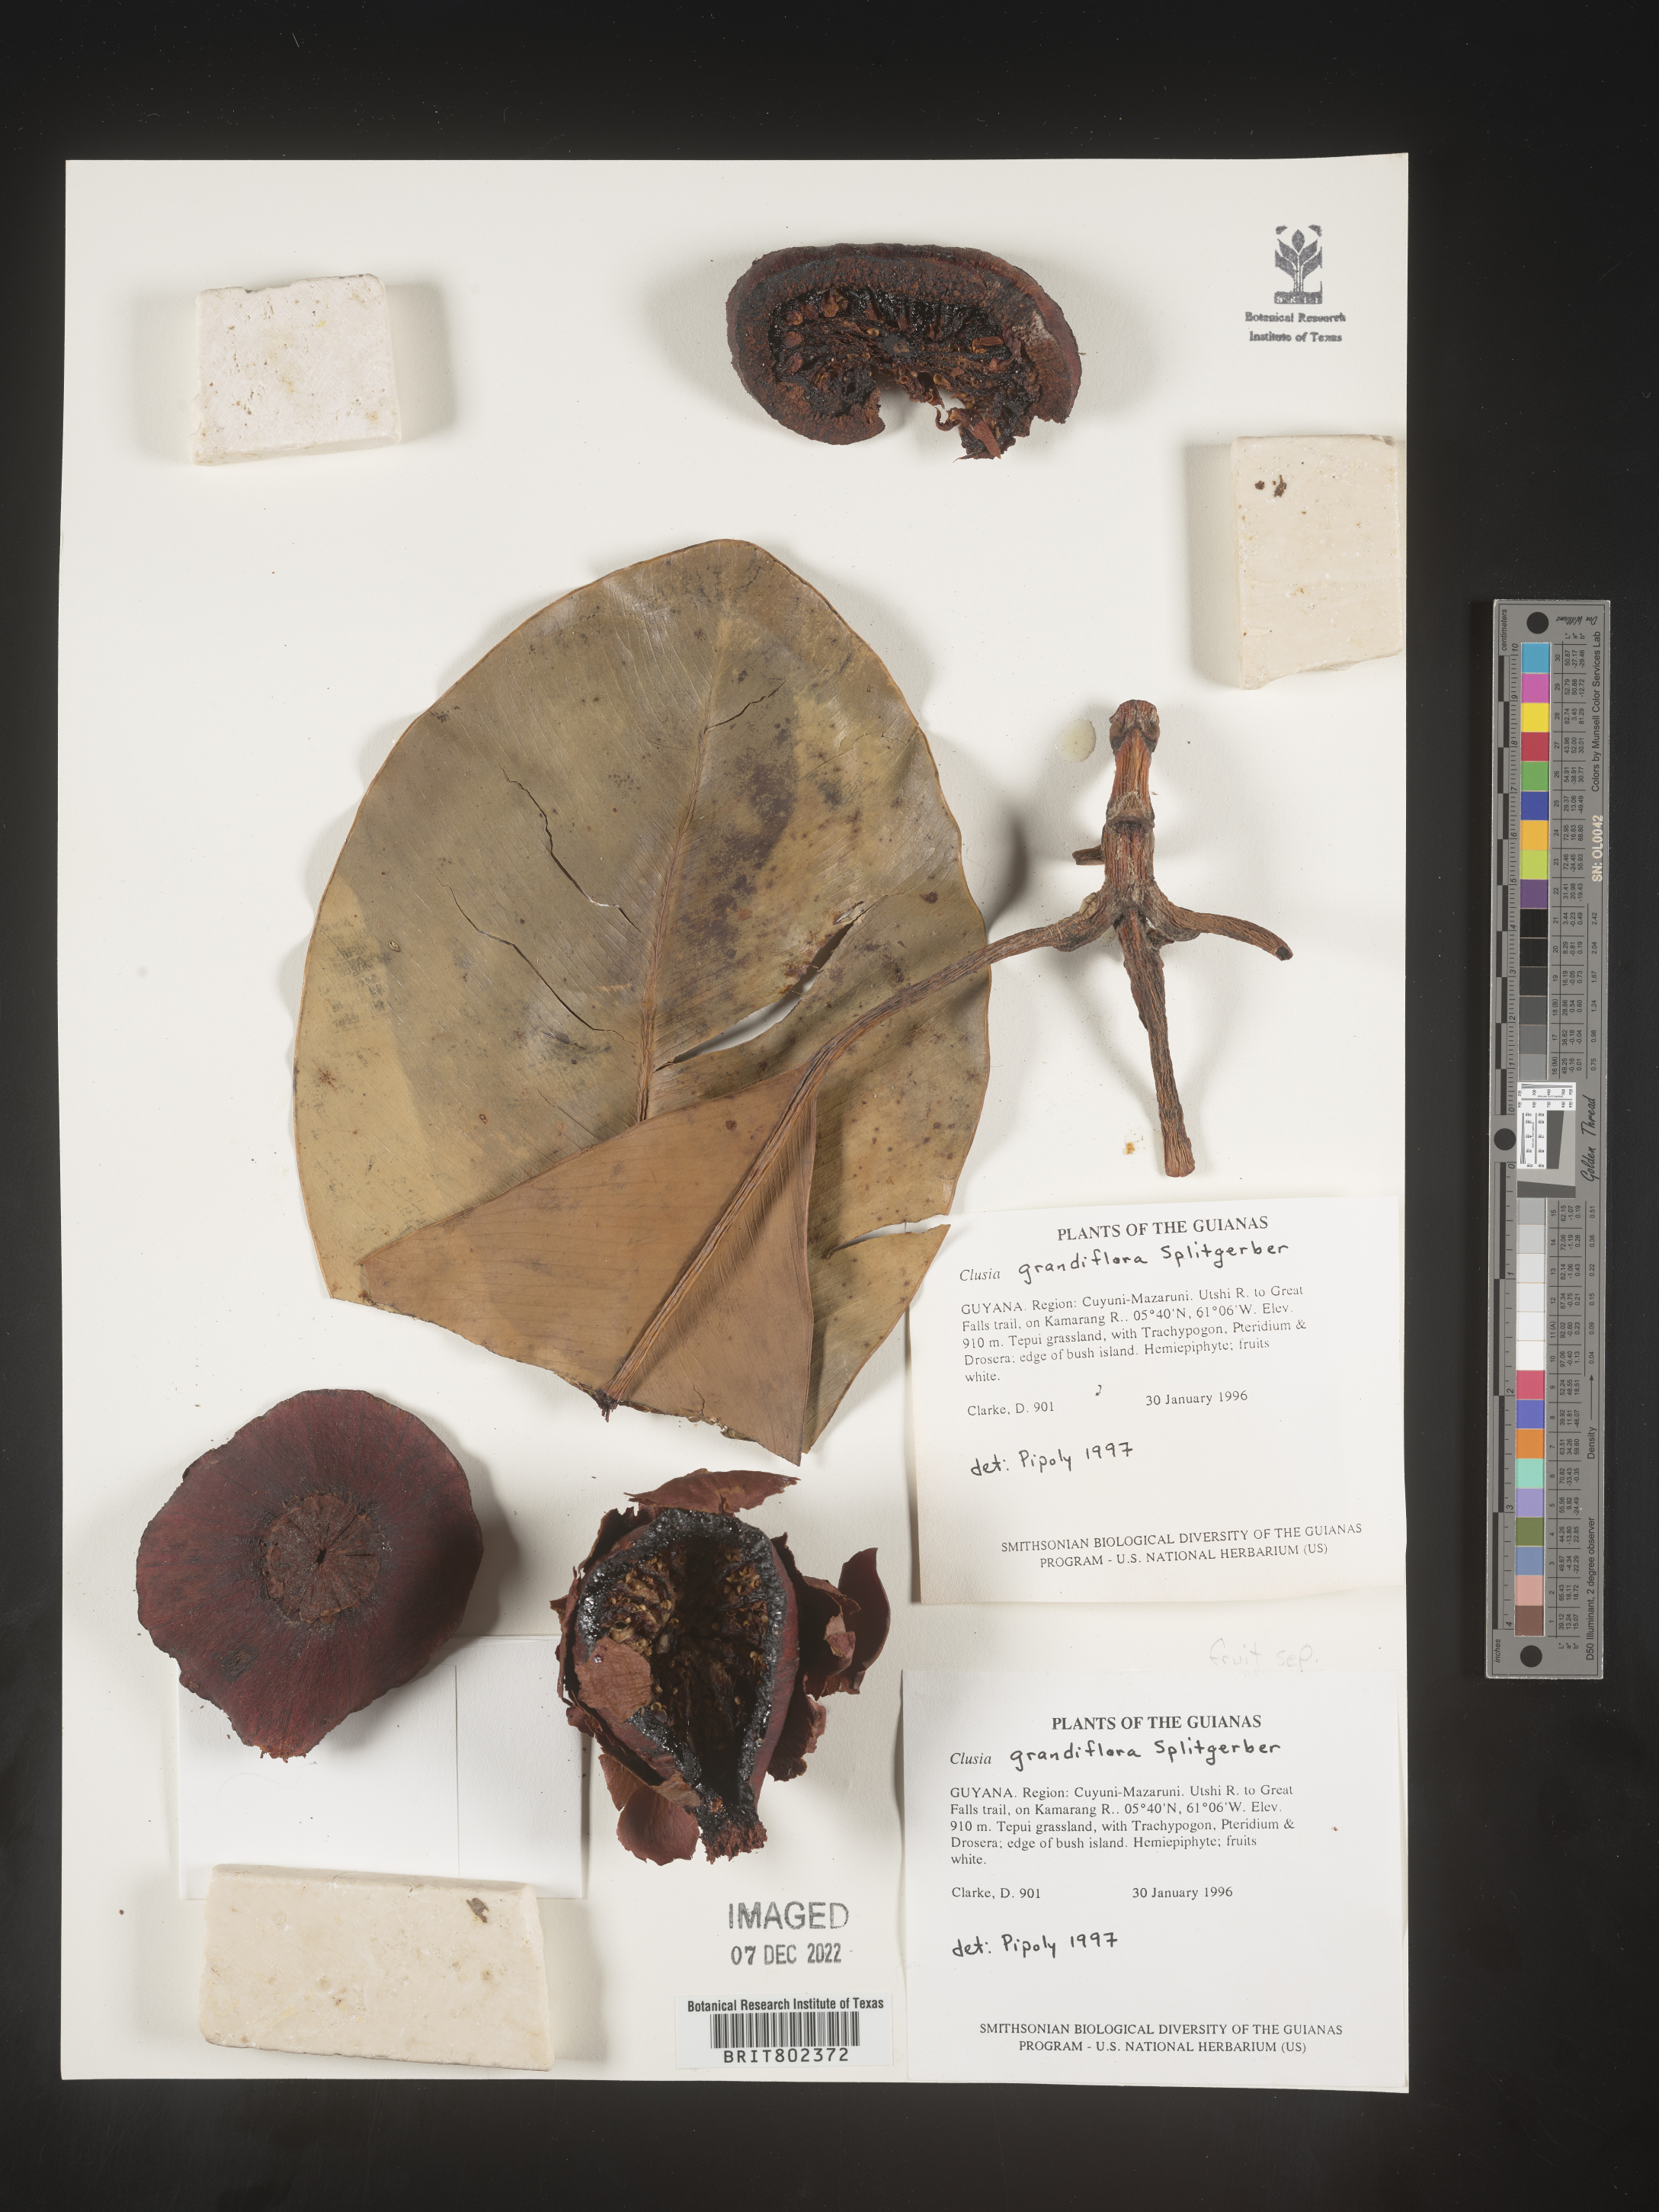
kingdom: Plantae
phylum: Tracheophyta
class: Magnoliopsida
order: Malpighiales
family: Clusiaceae
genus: Clusia
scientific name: Clusia grandiflora
